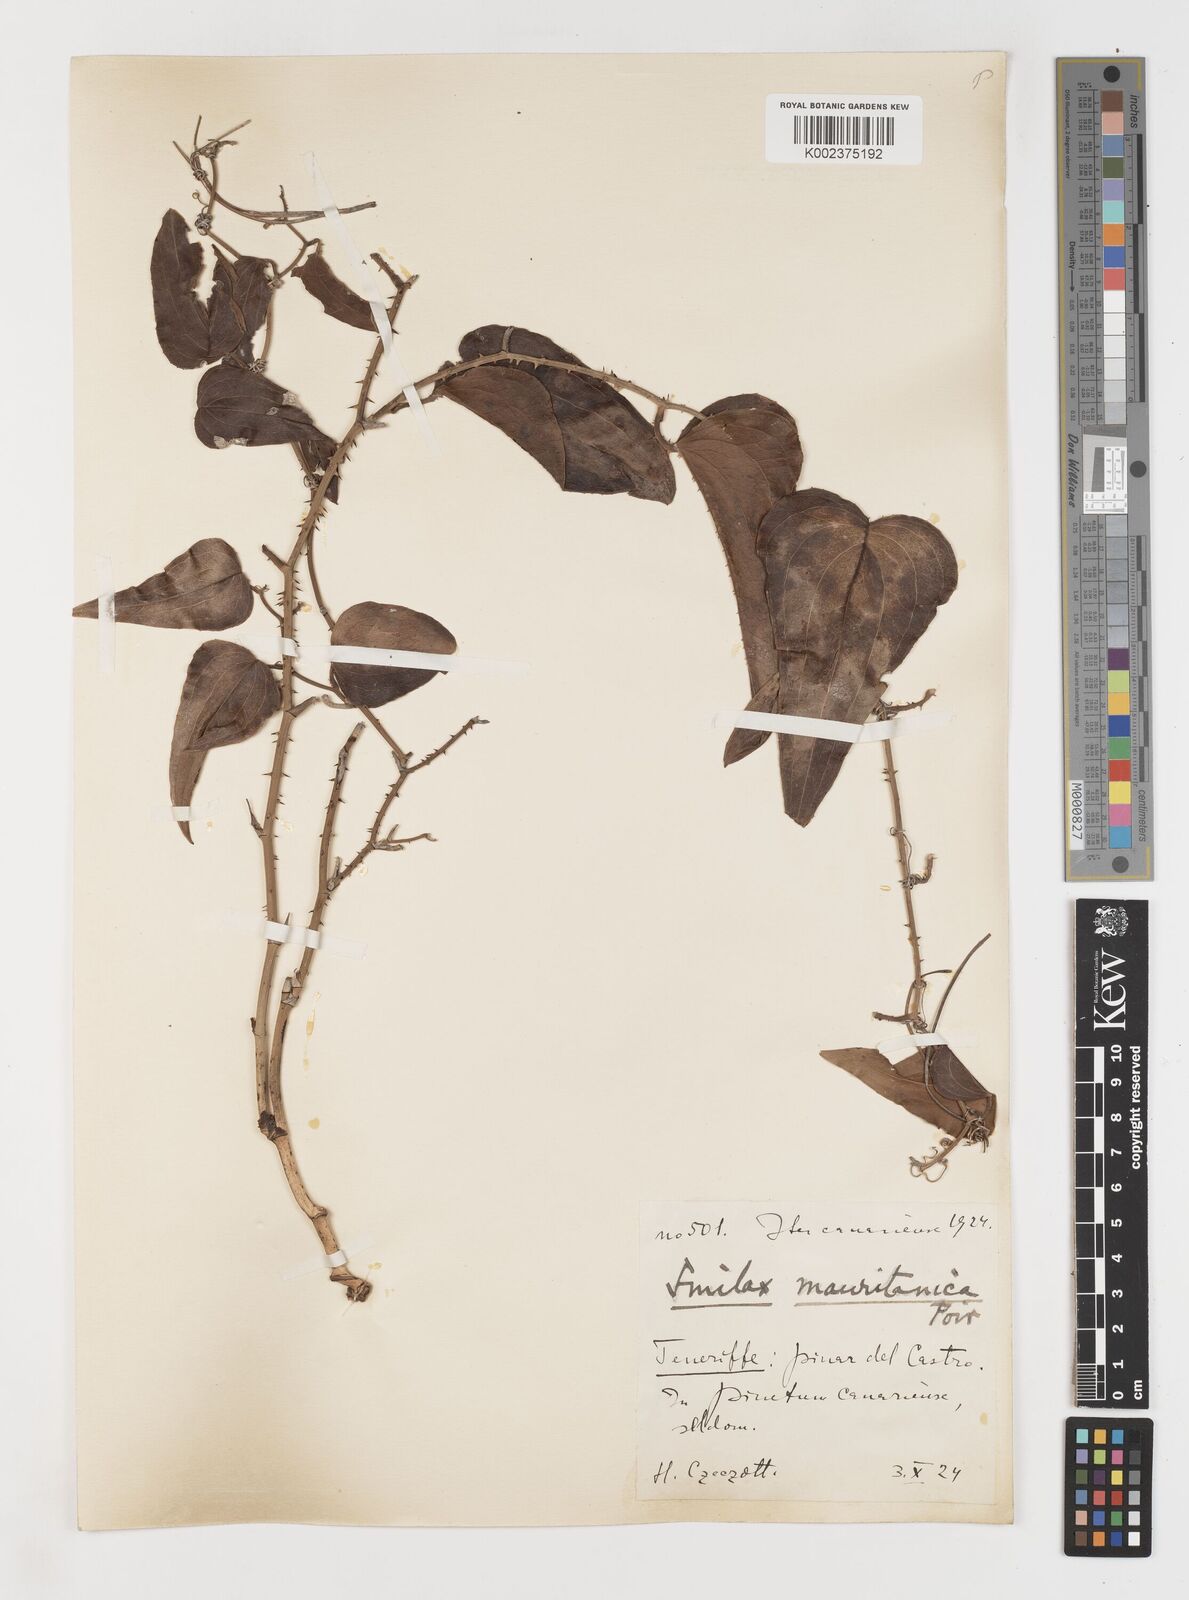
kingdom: Plantae
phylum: Tracheophyta
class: Liliopsida
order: Liliales
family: Smilacaceae
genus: Smilax
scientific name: Smilax aspera
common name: Common smilax
